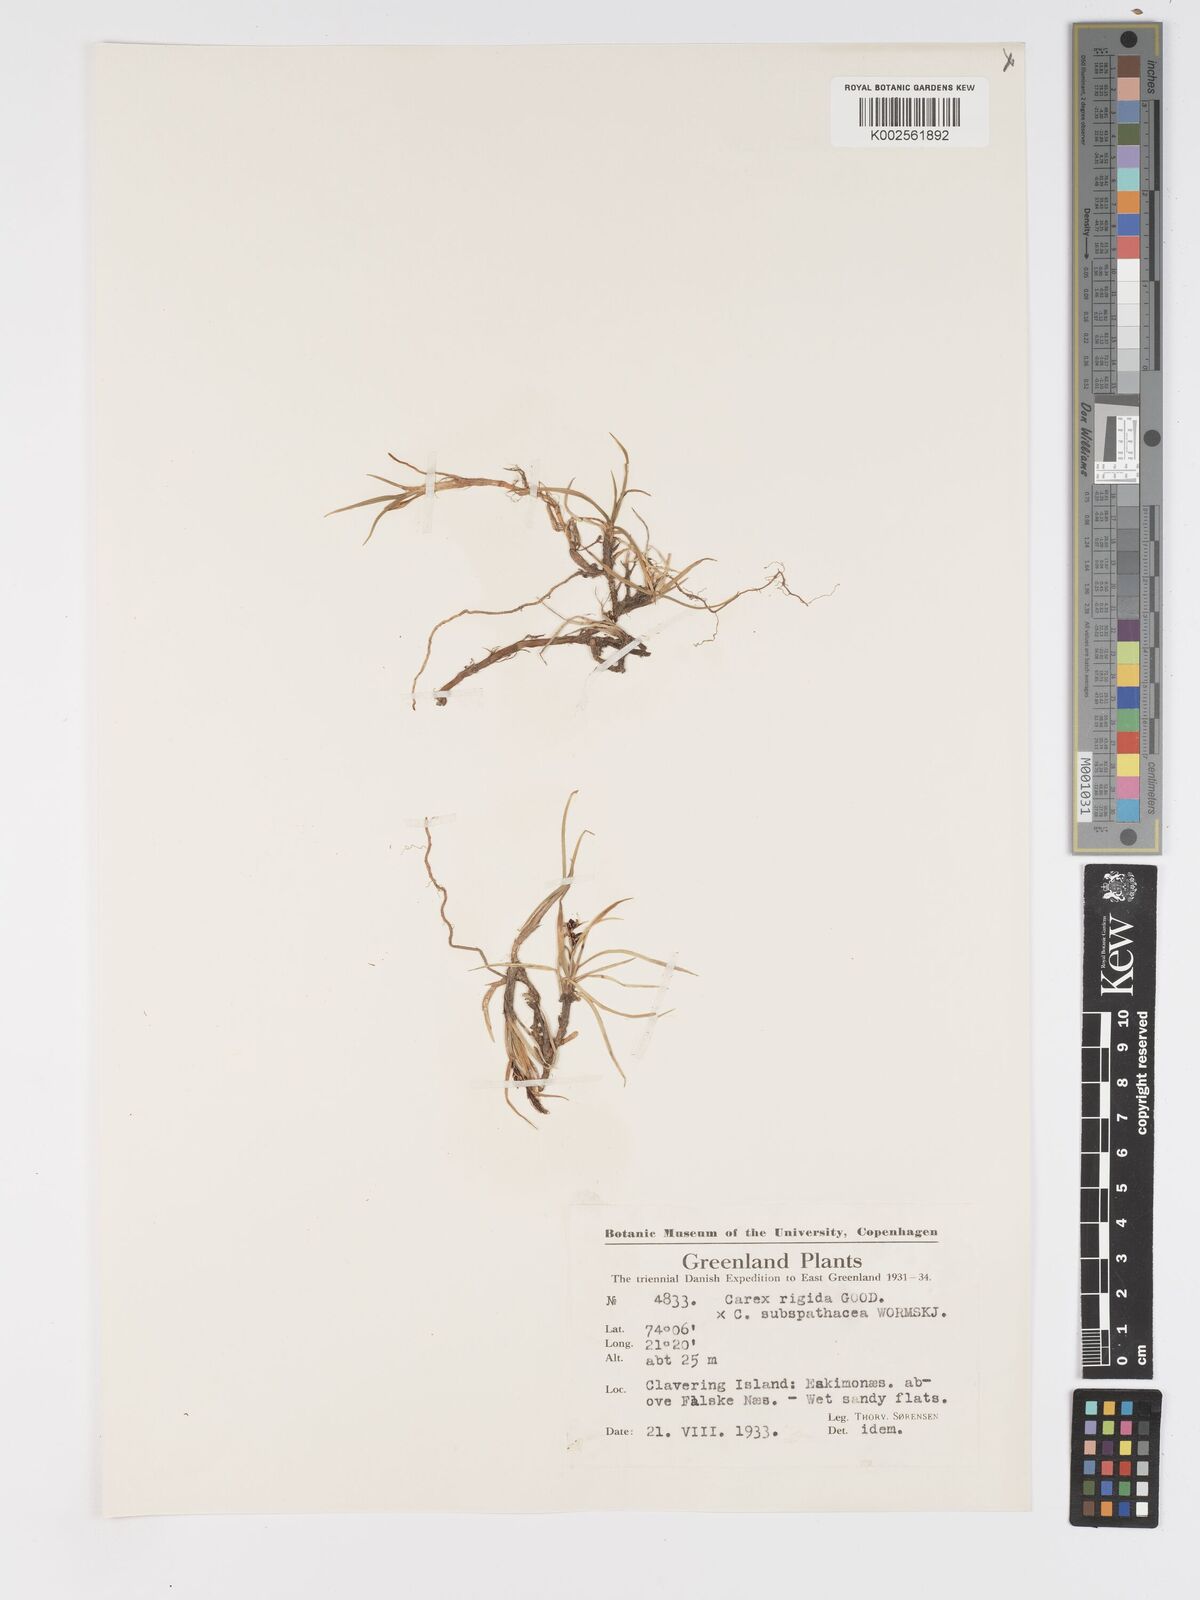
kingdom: Plantae
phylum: Tracheophyta
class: Liliopsida
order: Poales
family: Cyperaceae
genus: Carex
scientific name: Carex bigelowii
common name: Stiff sedge
